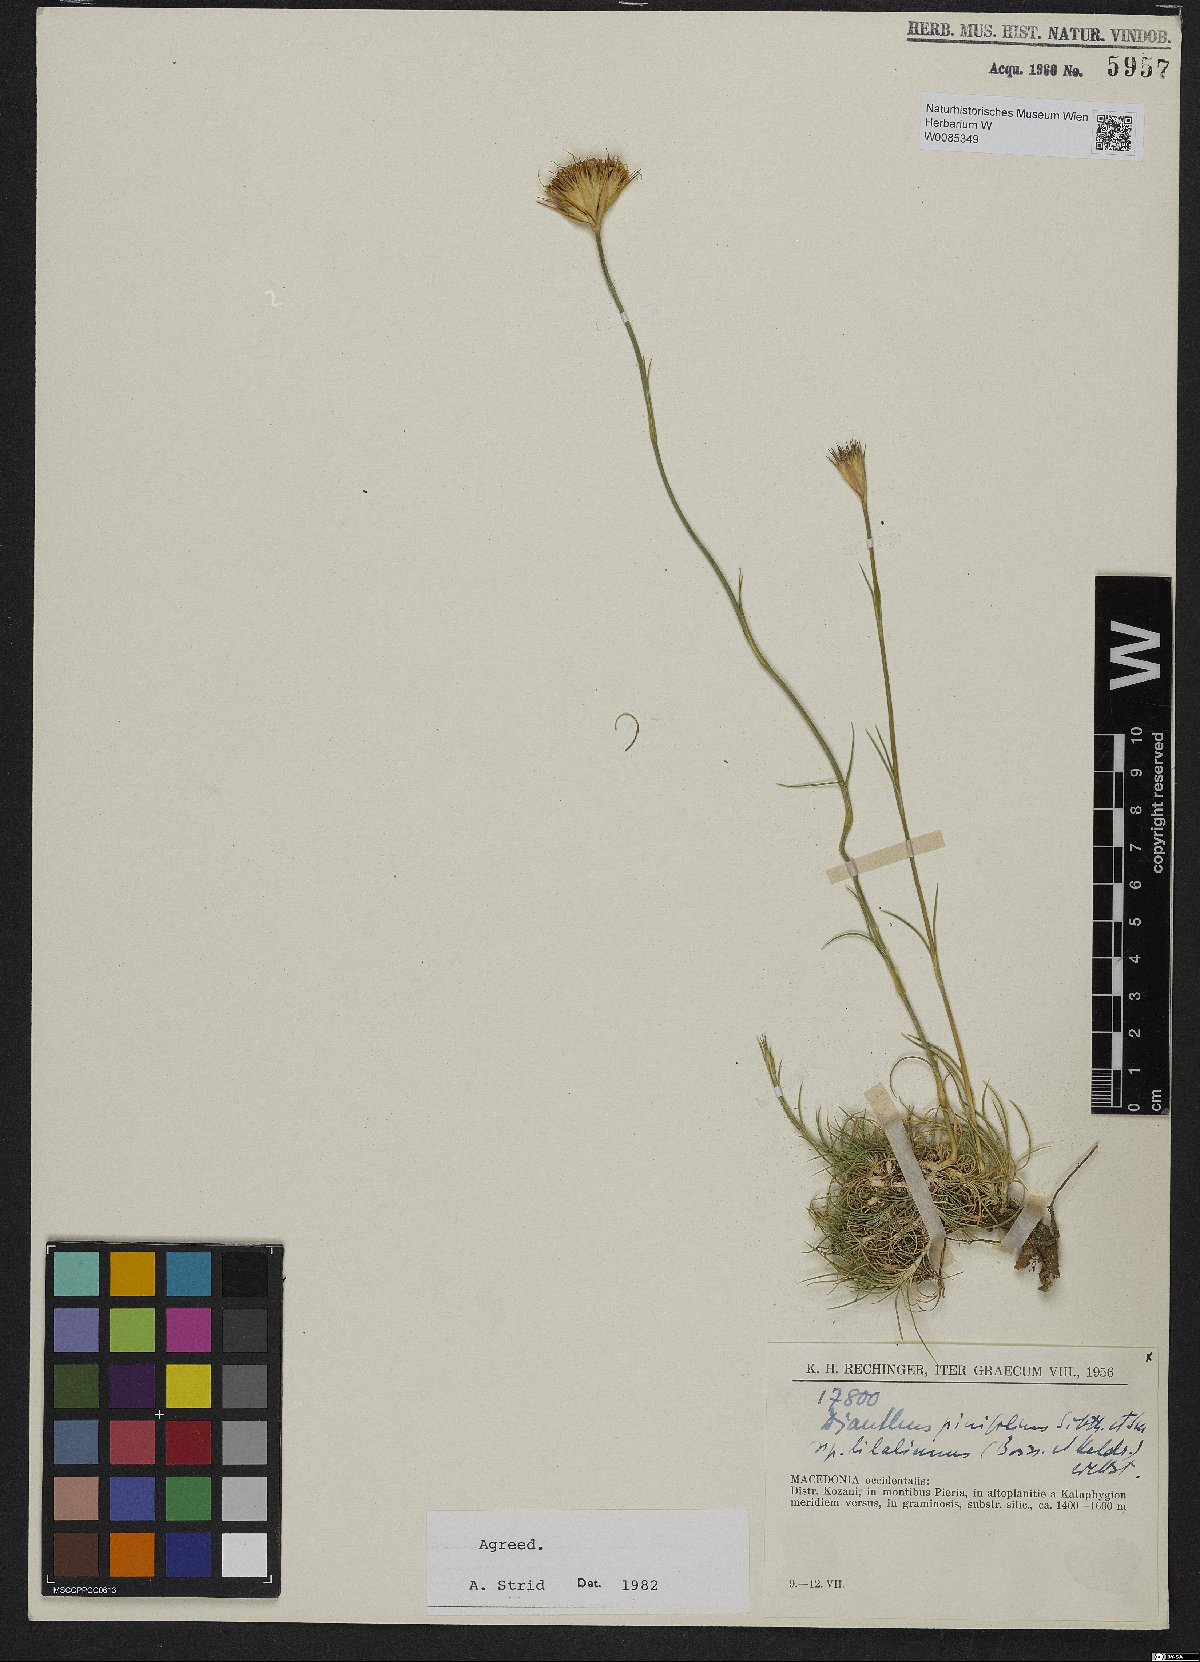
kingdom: Plantae
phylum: Tracheophyta
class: Magnoliopsida
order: Caryophyllales
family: Caryophyllaceae
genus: Dianthus
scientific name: Dianthus pinifolius
